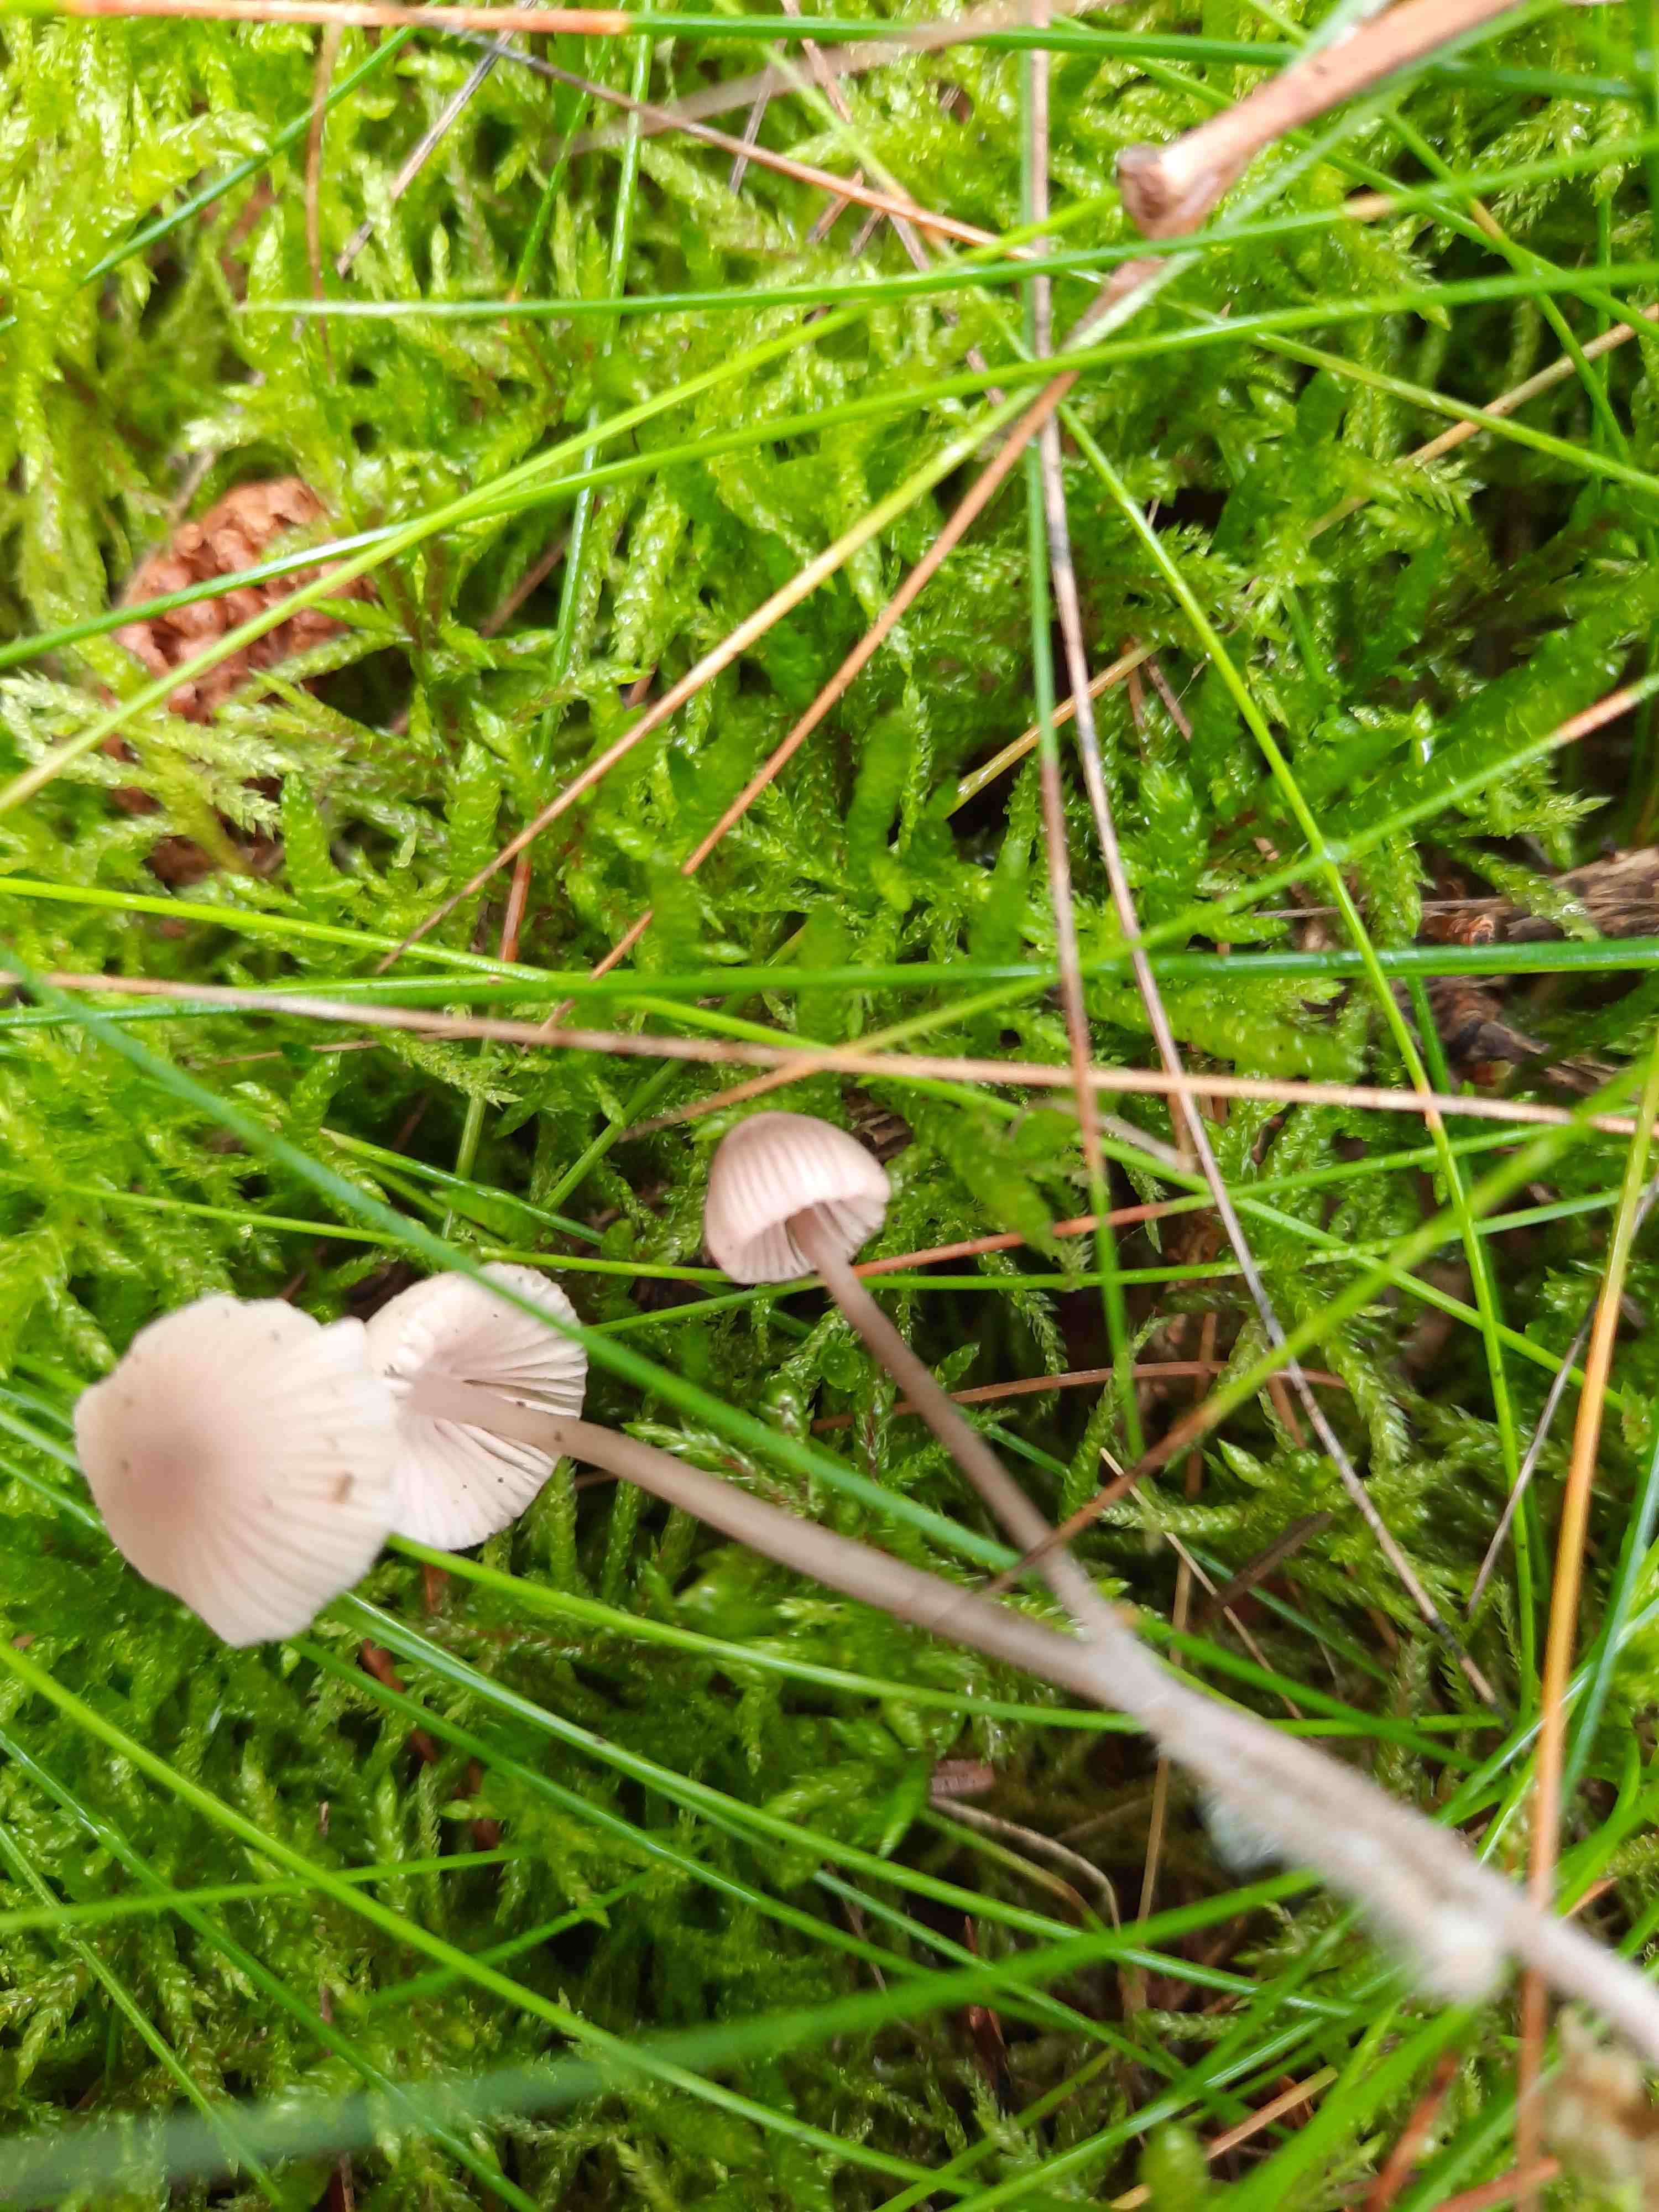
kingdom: Fungi
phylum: Basidiomycota
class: Agaricomycetes
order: Agaricales
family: Mycenaceae
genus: Mycena
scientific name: Mycena
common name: huesvamp
